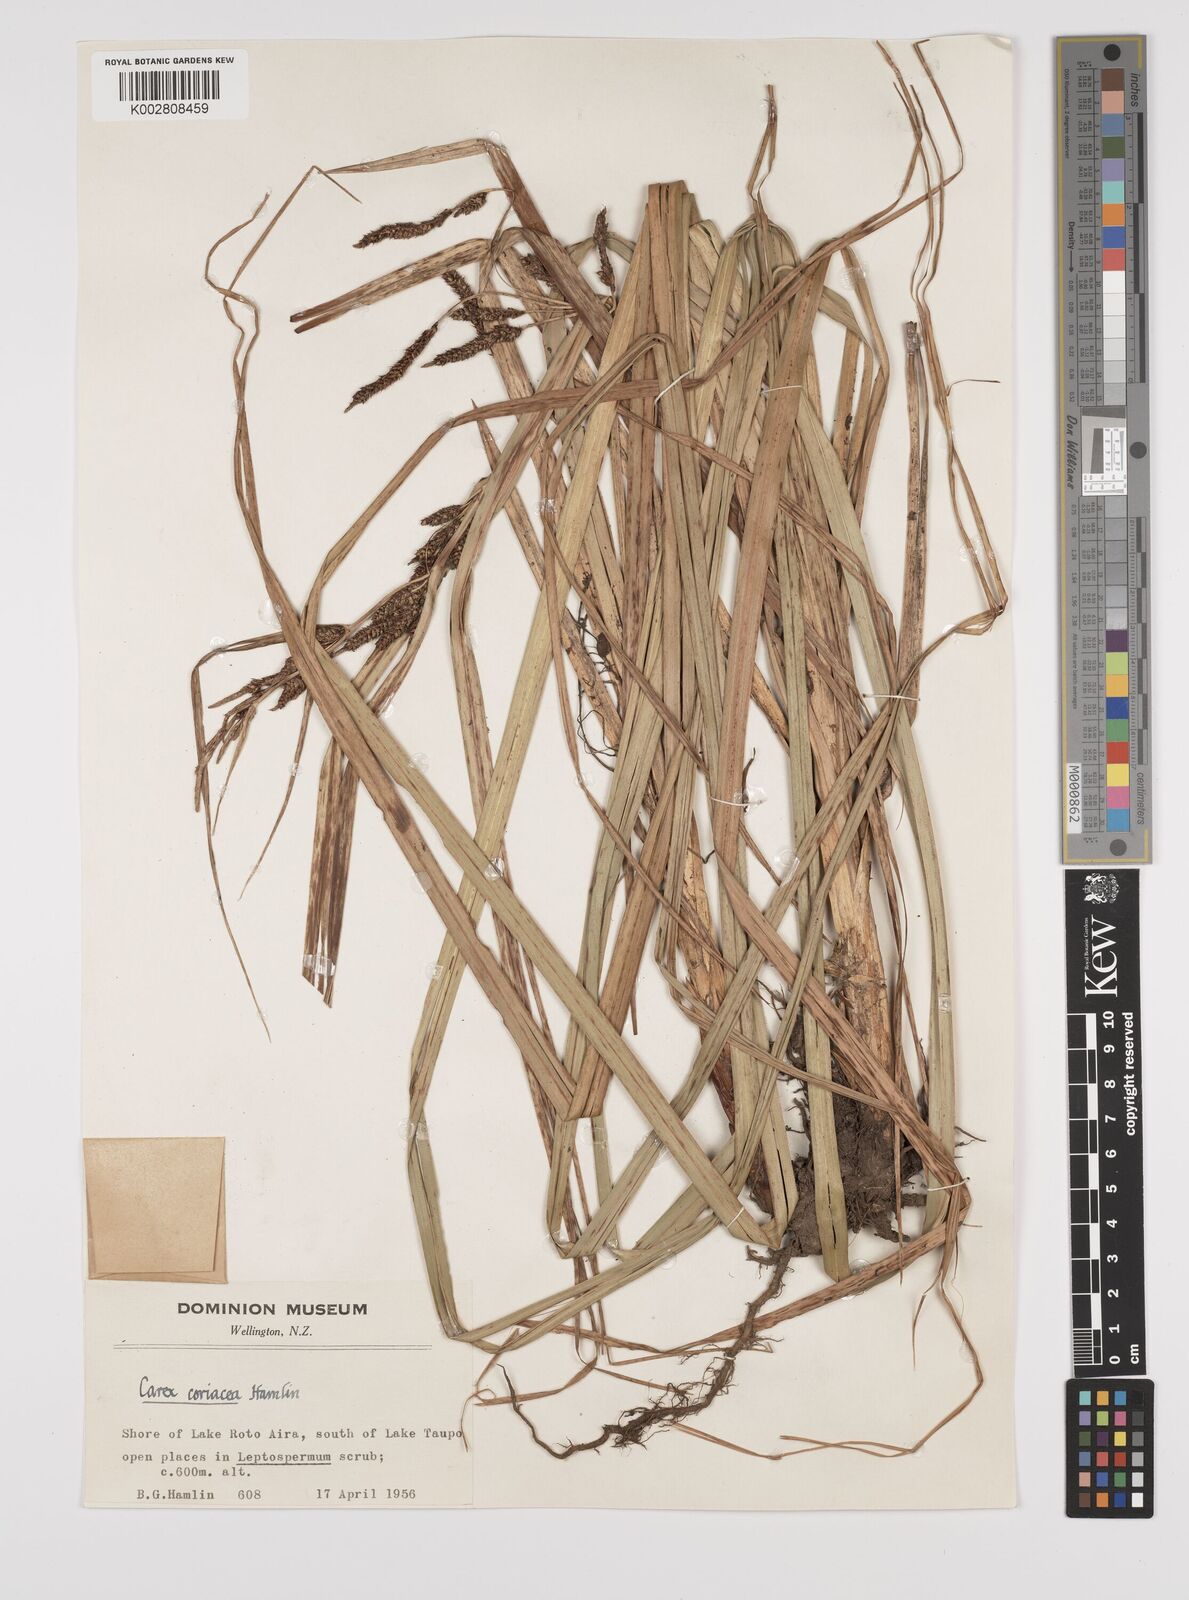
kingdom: Plantae
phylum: Tracheophyta
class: Liliopsida
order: Poales
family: Cyperaceae
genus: Carex
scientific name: Carex coriacea
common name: Rautahi
